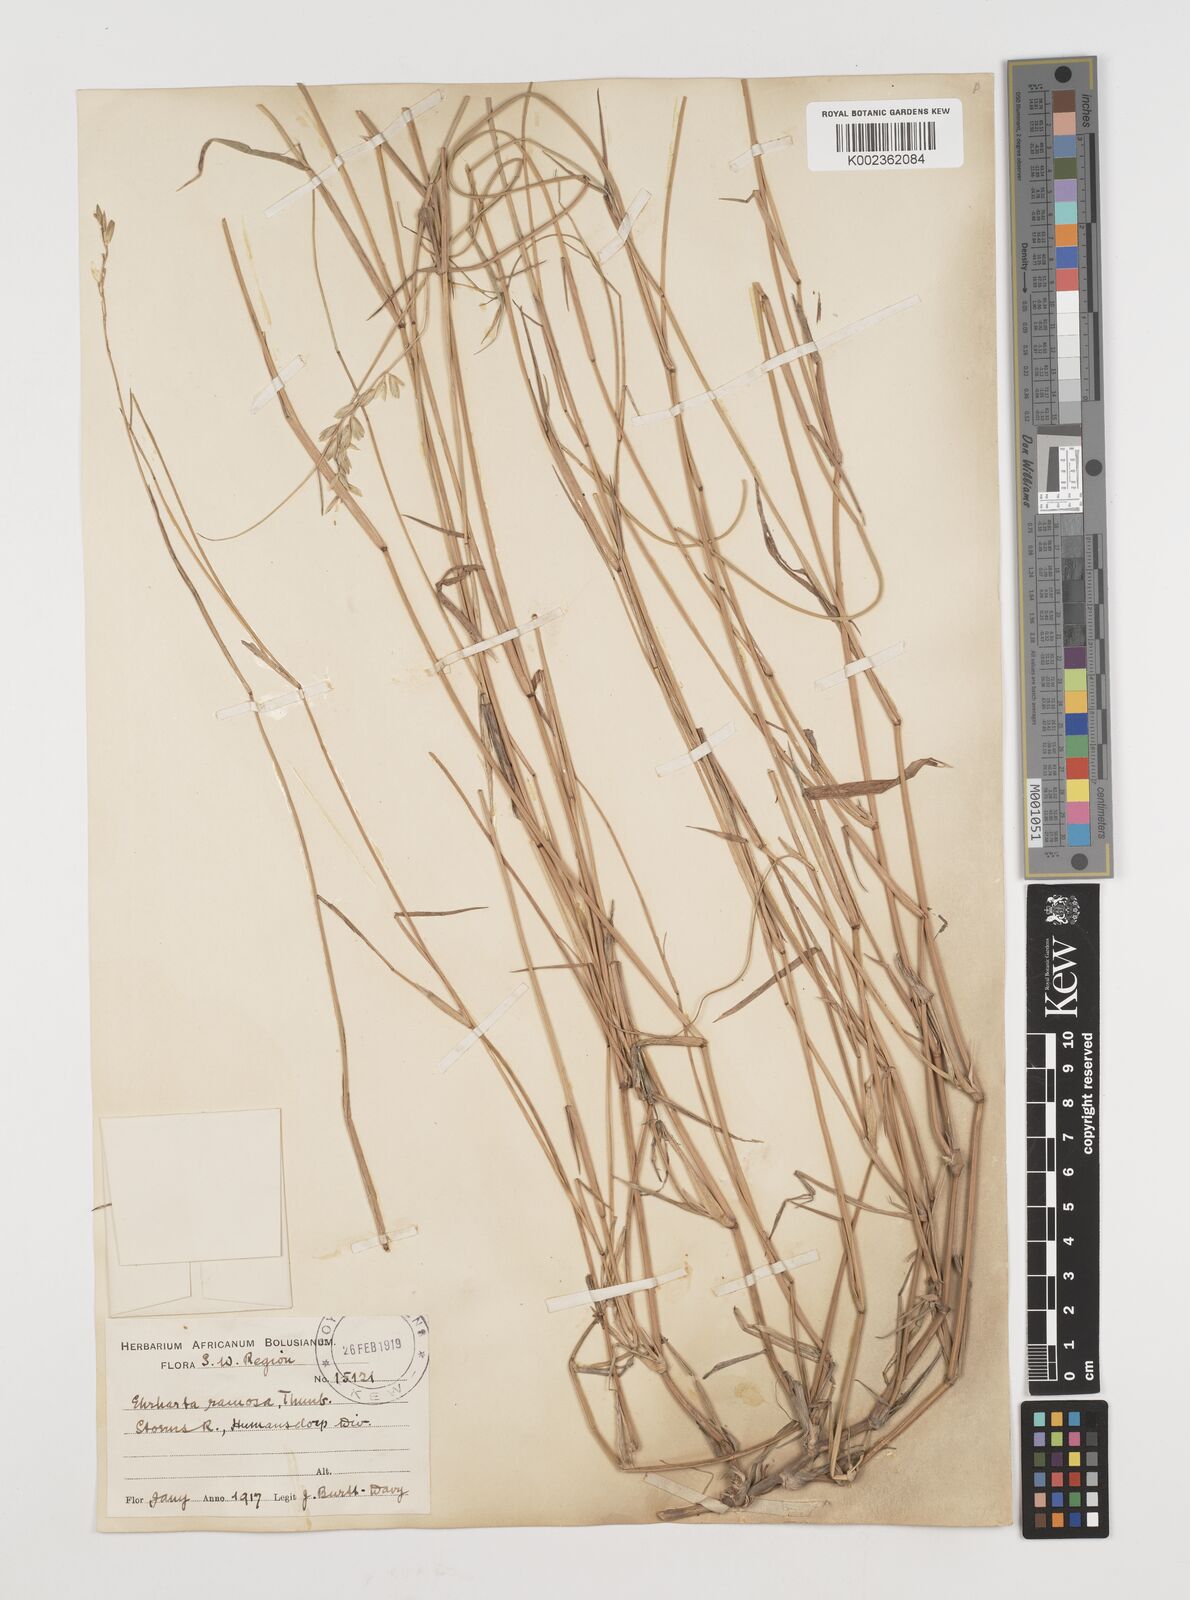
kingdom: Plantae
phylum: Tracheophyta
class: Liliopsida
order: Poales
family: Poaceae
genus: Ehrharta
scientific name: Ehrharta digyna
